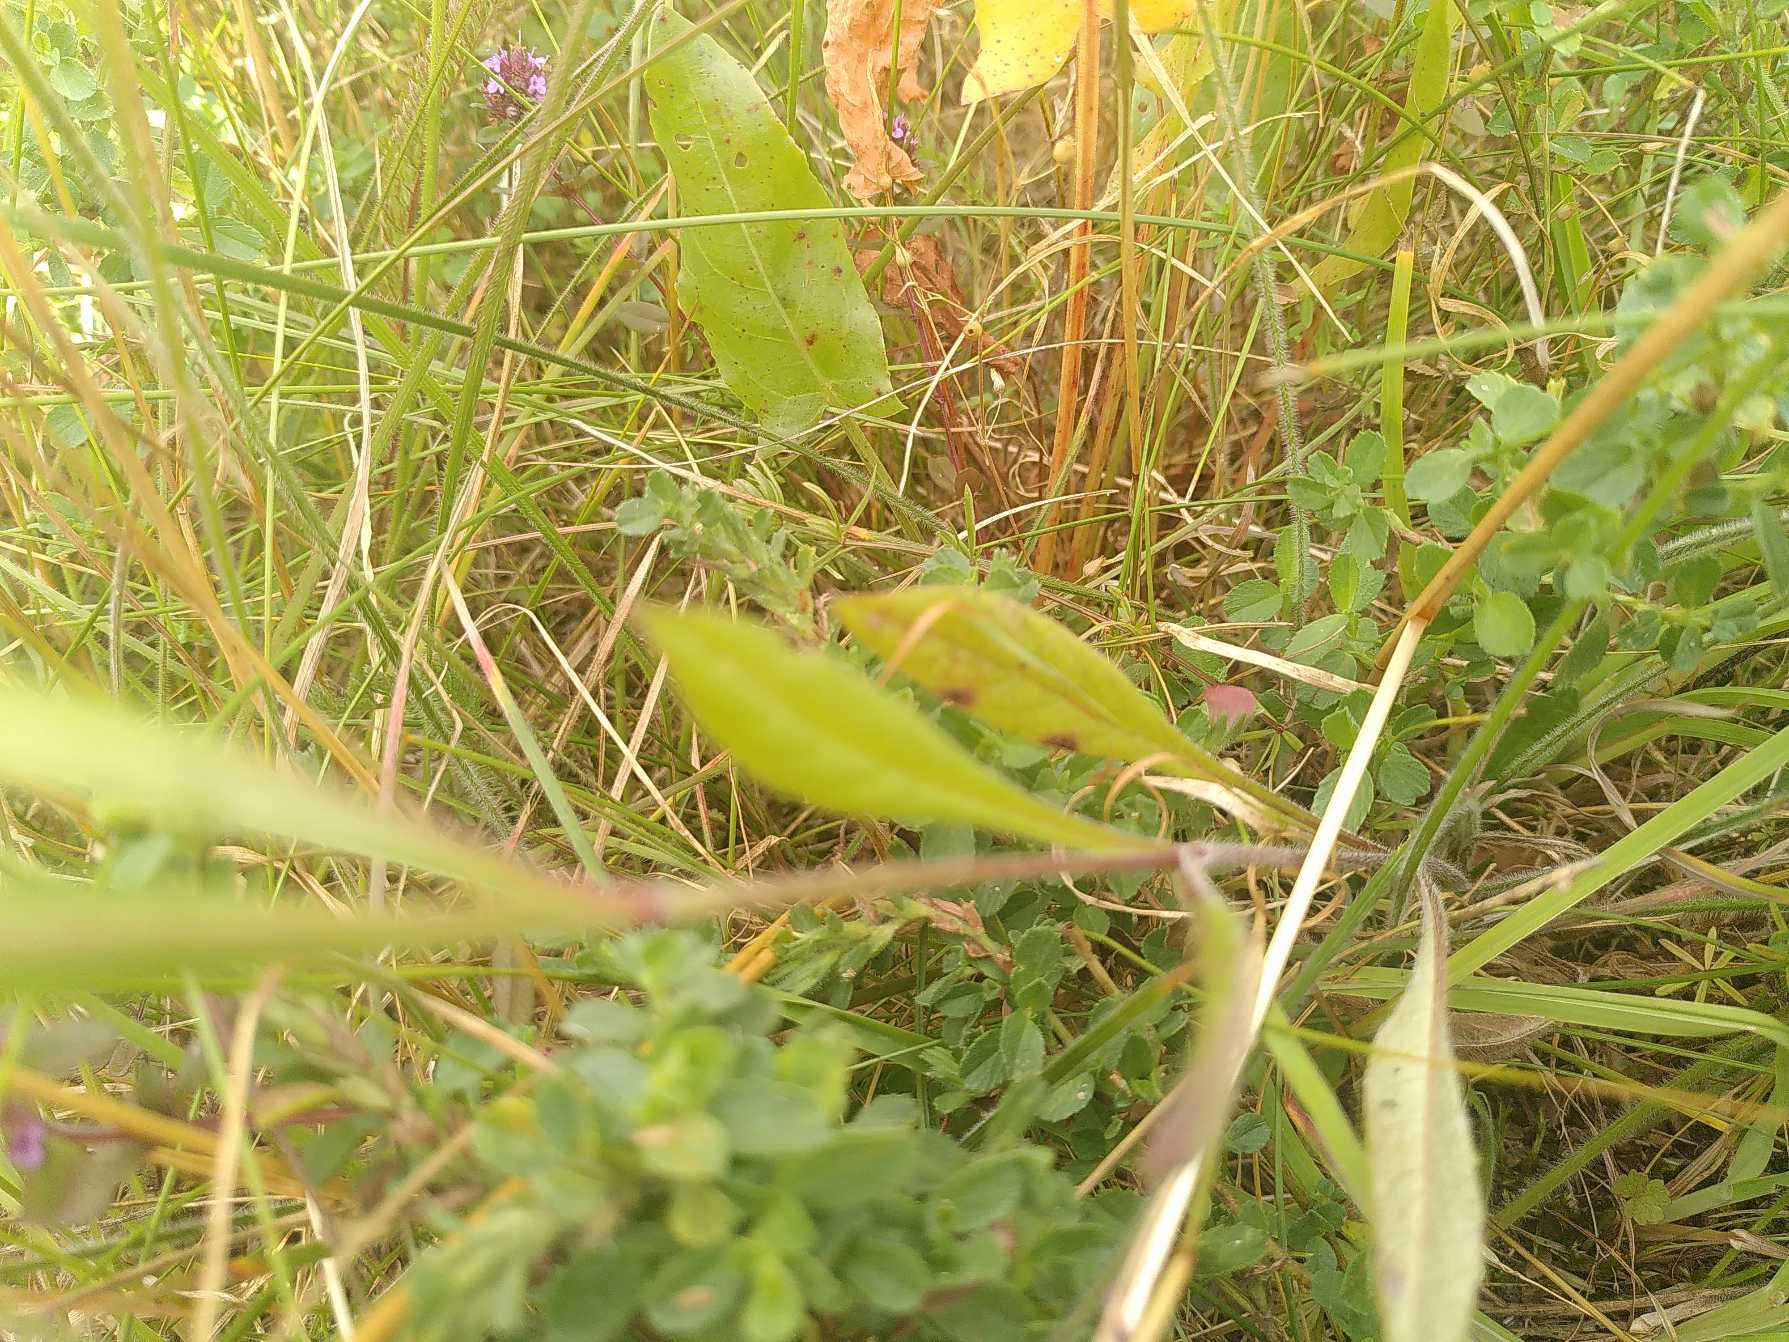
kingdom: Plantae
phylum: Tracheophyta
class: Magnoliopsida
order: Dipsacales
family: Caprifoliaceae
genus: Knautia
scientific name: Knautia arvensis
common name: Blåhat
